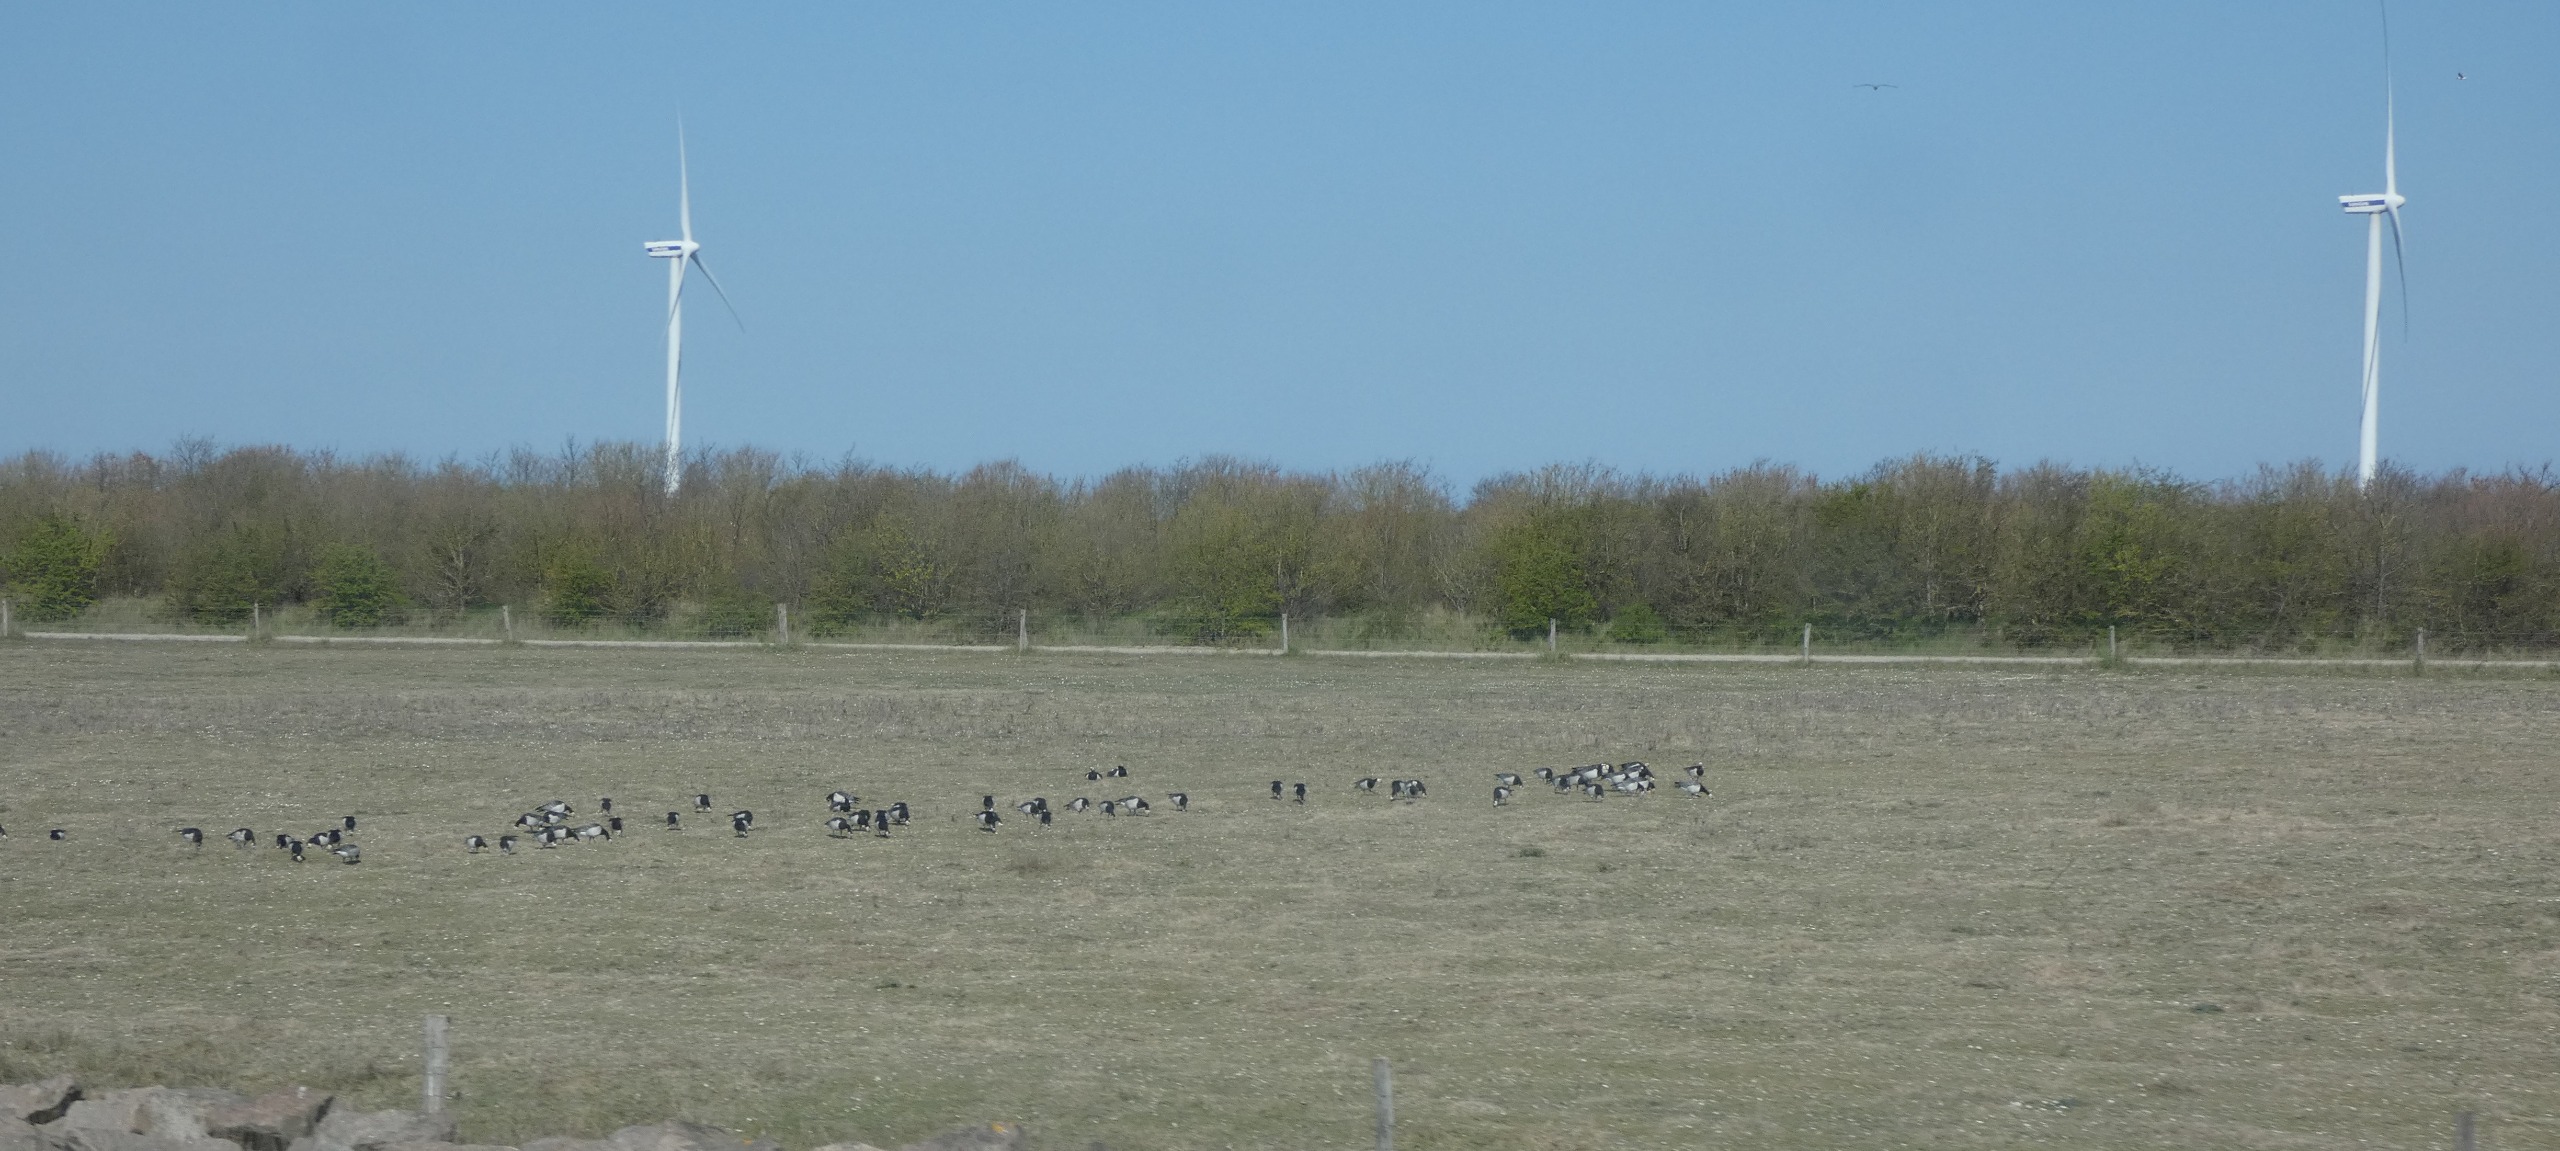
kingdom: Animalia
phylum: Chordata
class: Aves
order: Anseriformes
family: Anatidae
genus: Branta
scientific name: Branta leucopsis
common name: Bramgås
